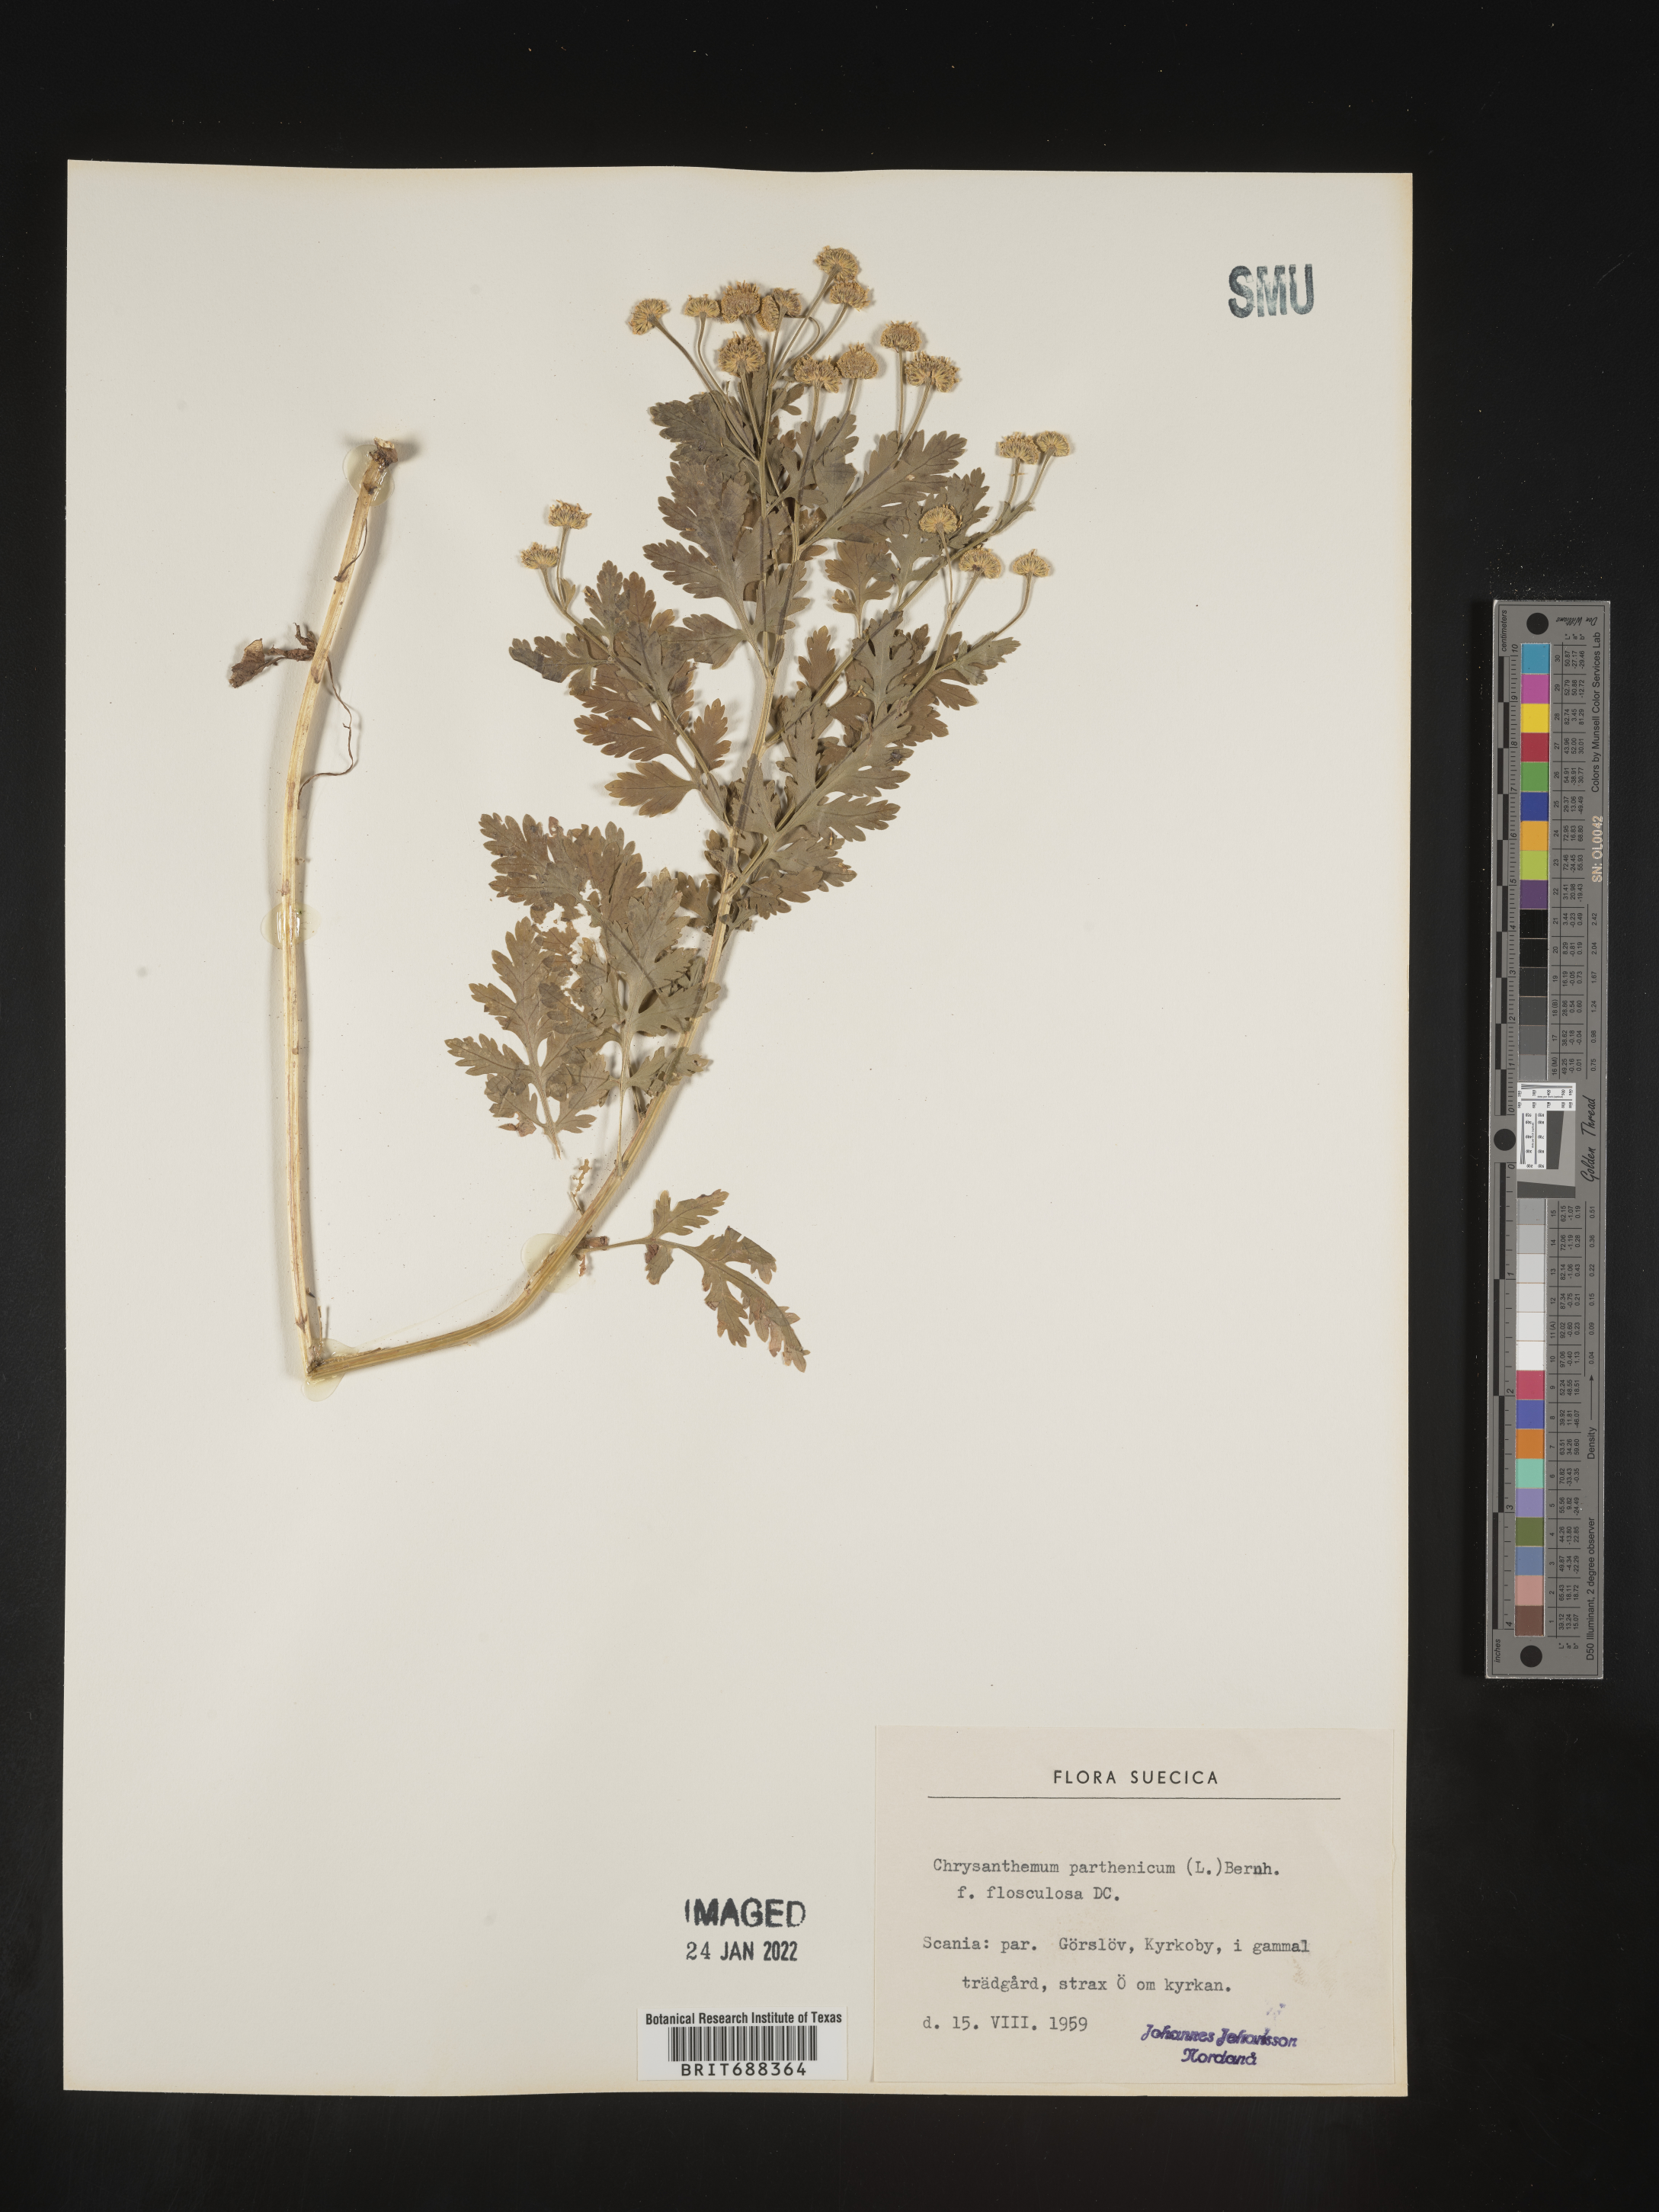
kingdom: Plantae
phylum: Tracheophyta
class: Magnoliopsida
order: Asterales
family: Asteraceae
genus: Chrysanthemum
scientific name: Chrysanthemum
